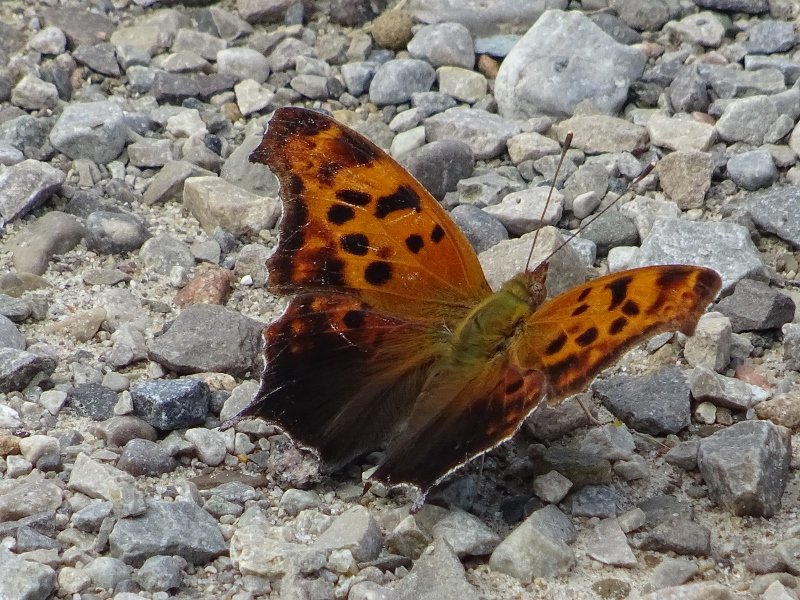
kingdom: Animalia
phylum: Arthropoda
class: Insecta
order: Lepidoptera
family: Nymphalidae
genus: Asterocampa
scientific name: Asterocampa clyton
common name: Tawny Emperor
